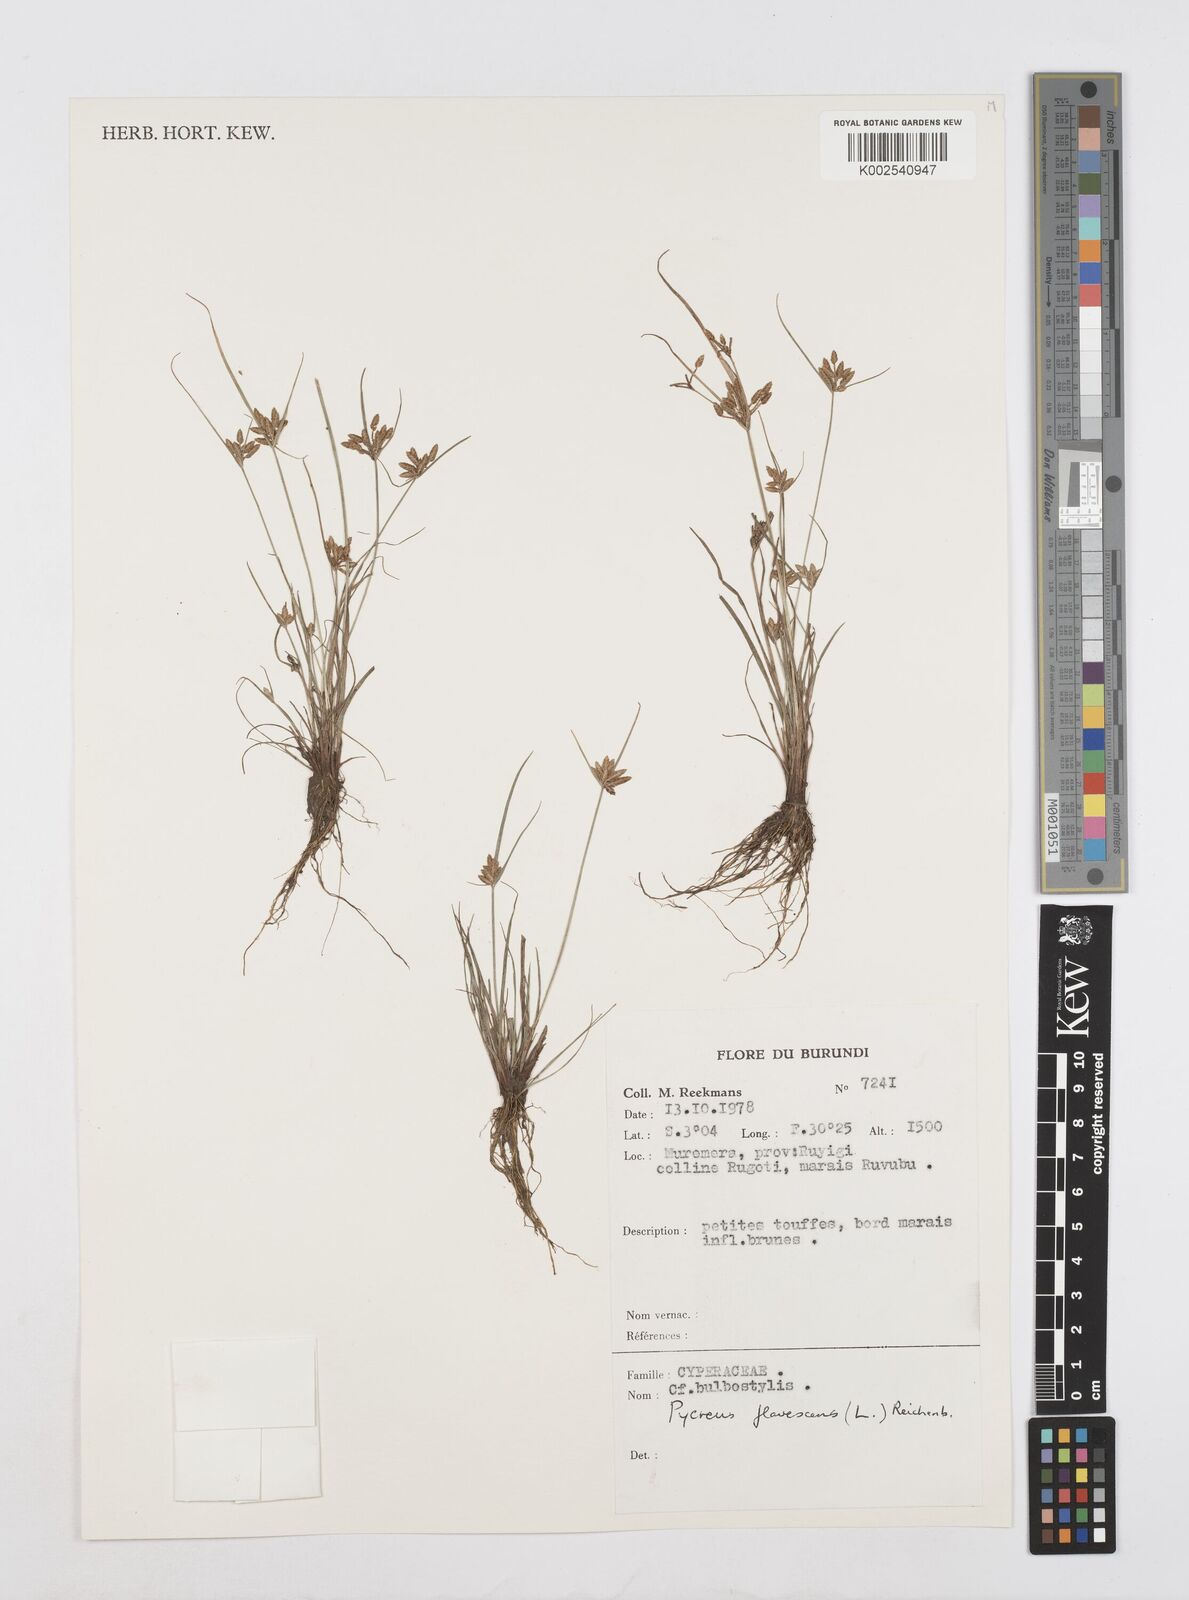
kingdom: Plantae
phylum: Tracheophyta
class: Liliopsida
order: Poales
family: Cyperaceae
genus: Cyperus
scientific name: Cyperus flavescens
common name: Yellow galingale
